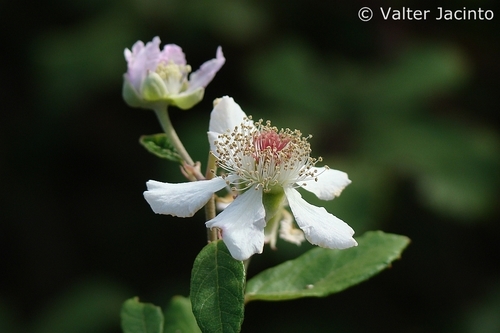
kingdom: Plantae
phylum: Tracheophyta
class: Magnoliopsida
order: Rosales
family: Rosaceae
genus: Rubus
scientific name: Rubus ulmifolius
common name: Elmleaf blackberry
